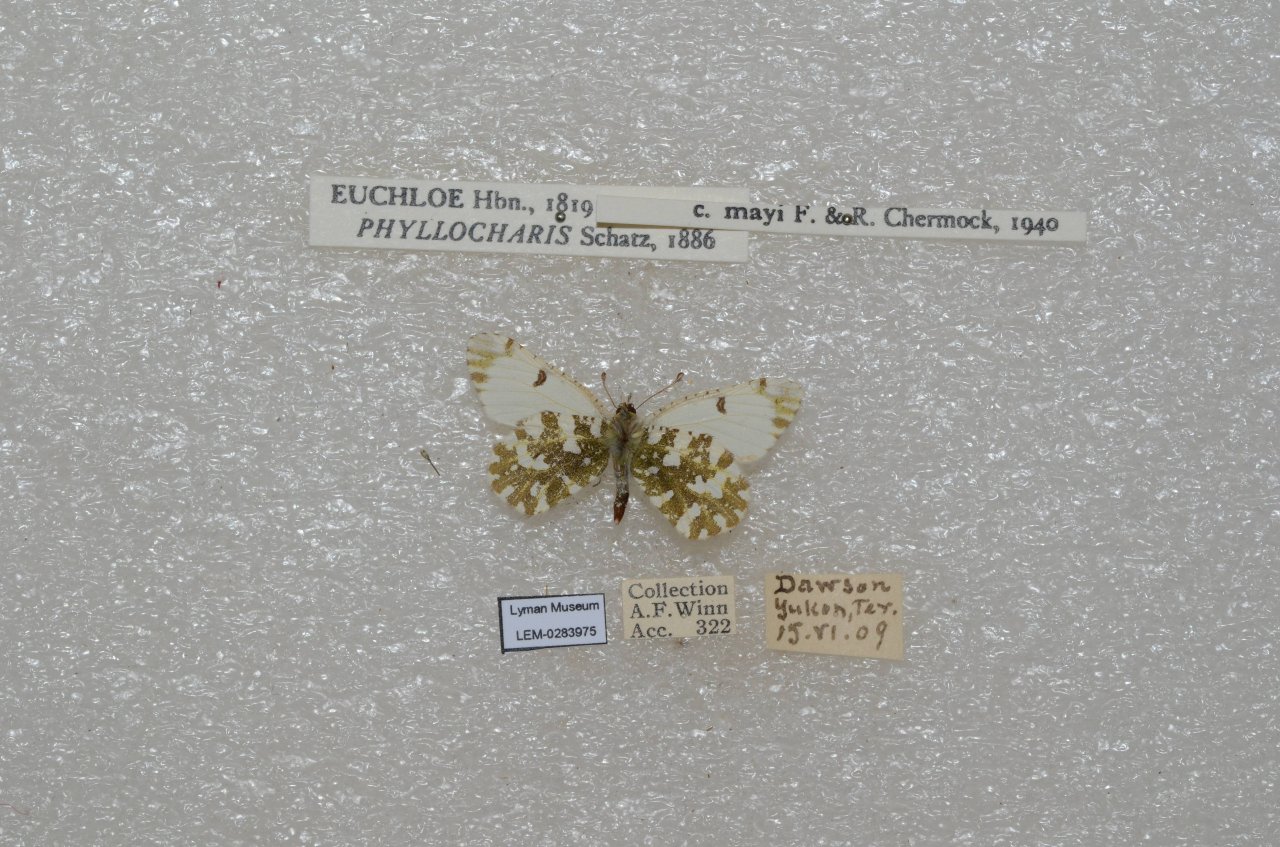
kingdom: Animalia
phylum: Arthropoda
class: Insecta
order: Lepidoptera
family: Pieridae
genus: Euchloe
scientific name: Euchloe ausonides
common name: Large Marble
